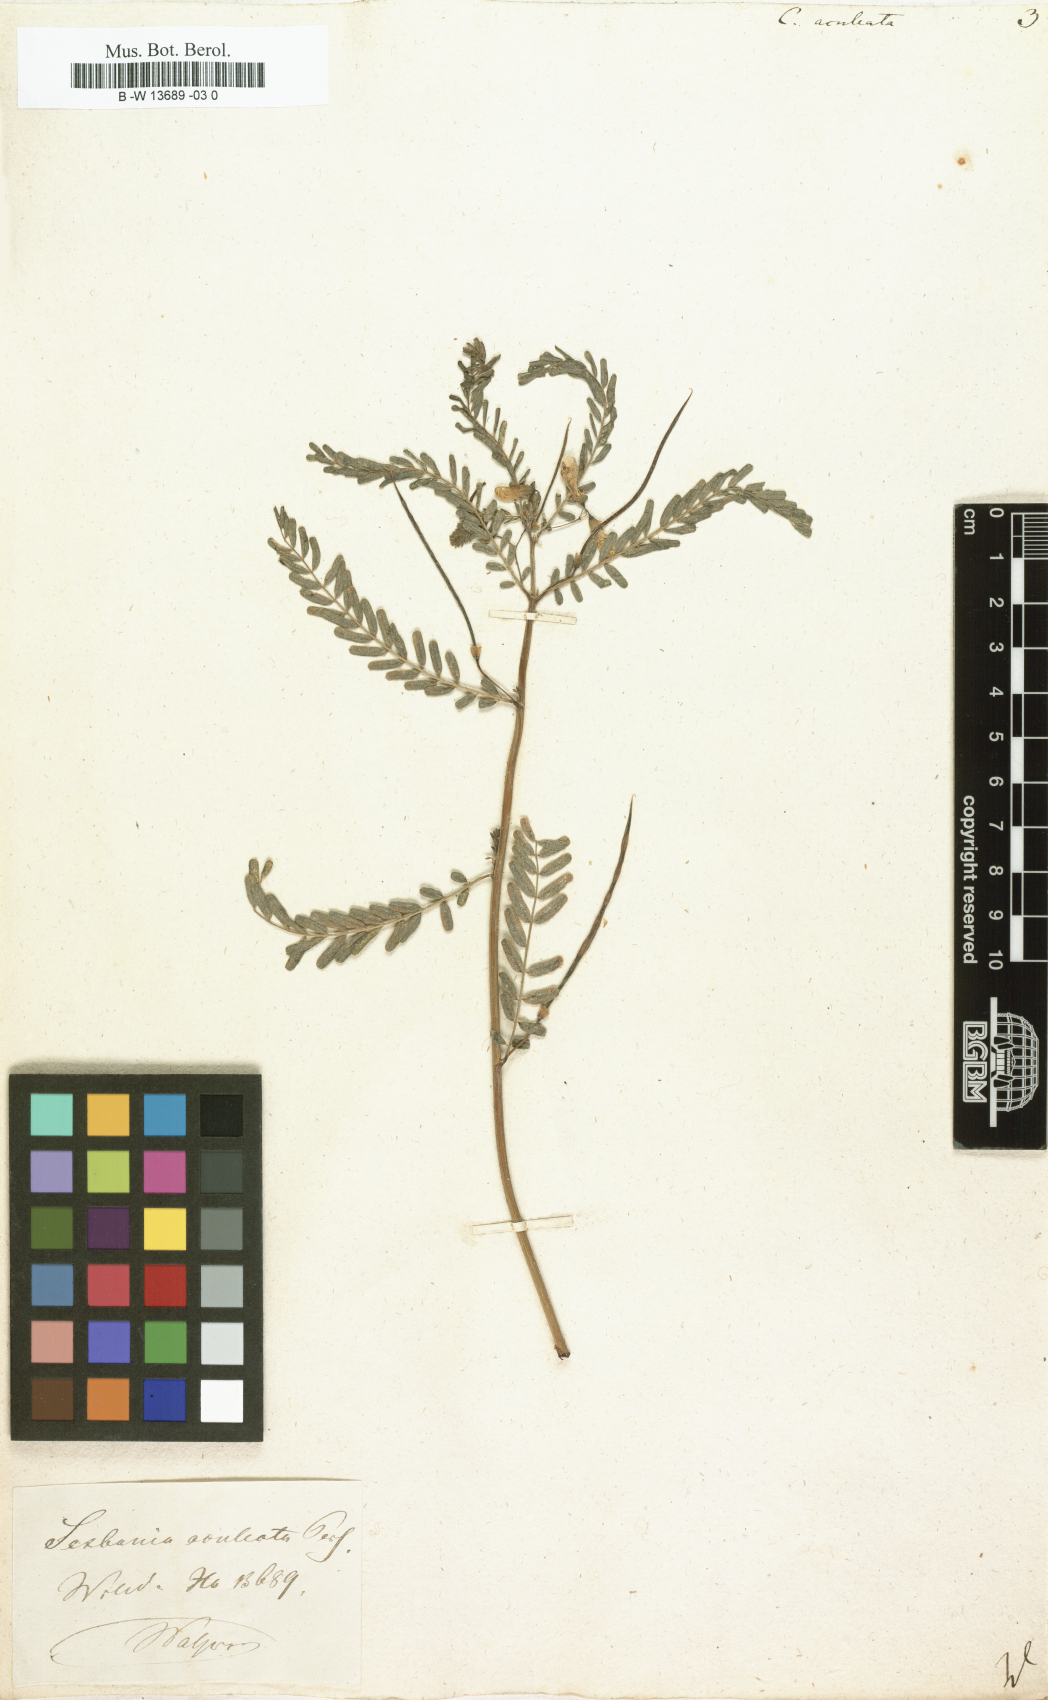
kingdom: Plantae
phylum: Tracheophyta
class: Magnoliopsida
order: Fabales
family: Fabaceae
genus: Sesbania
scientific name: Sesbania bispinosa
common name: Sesbania pea
